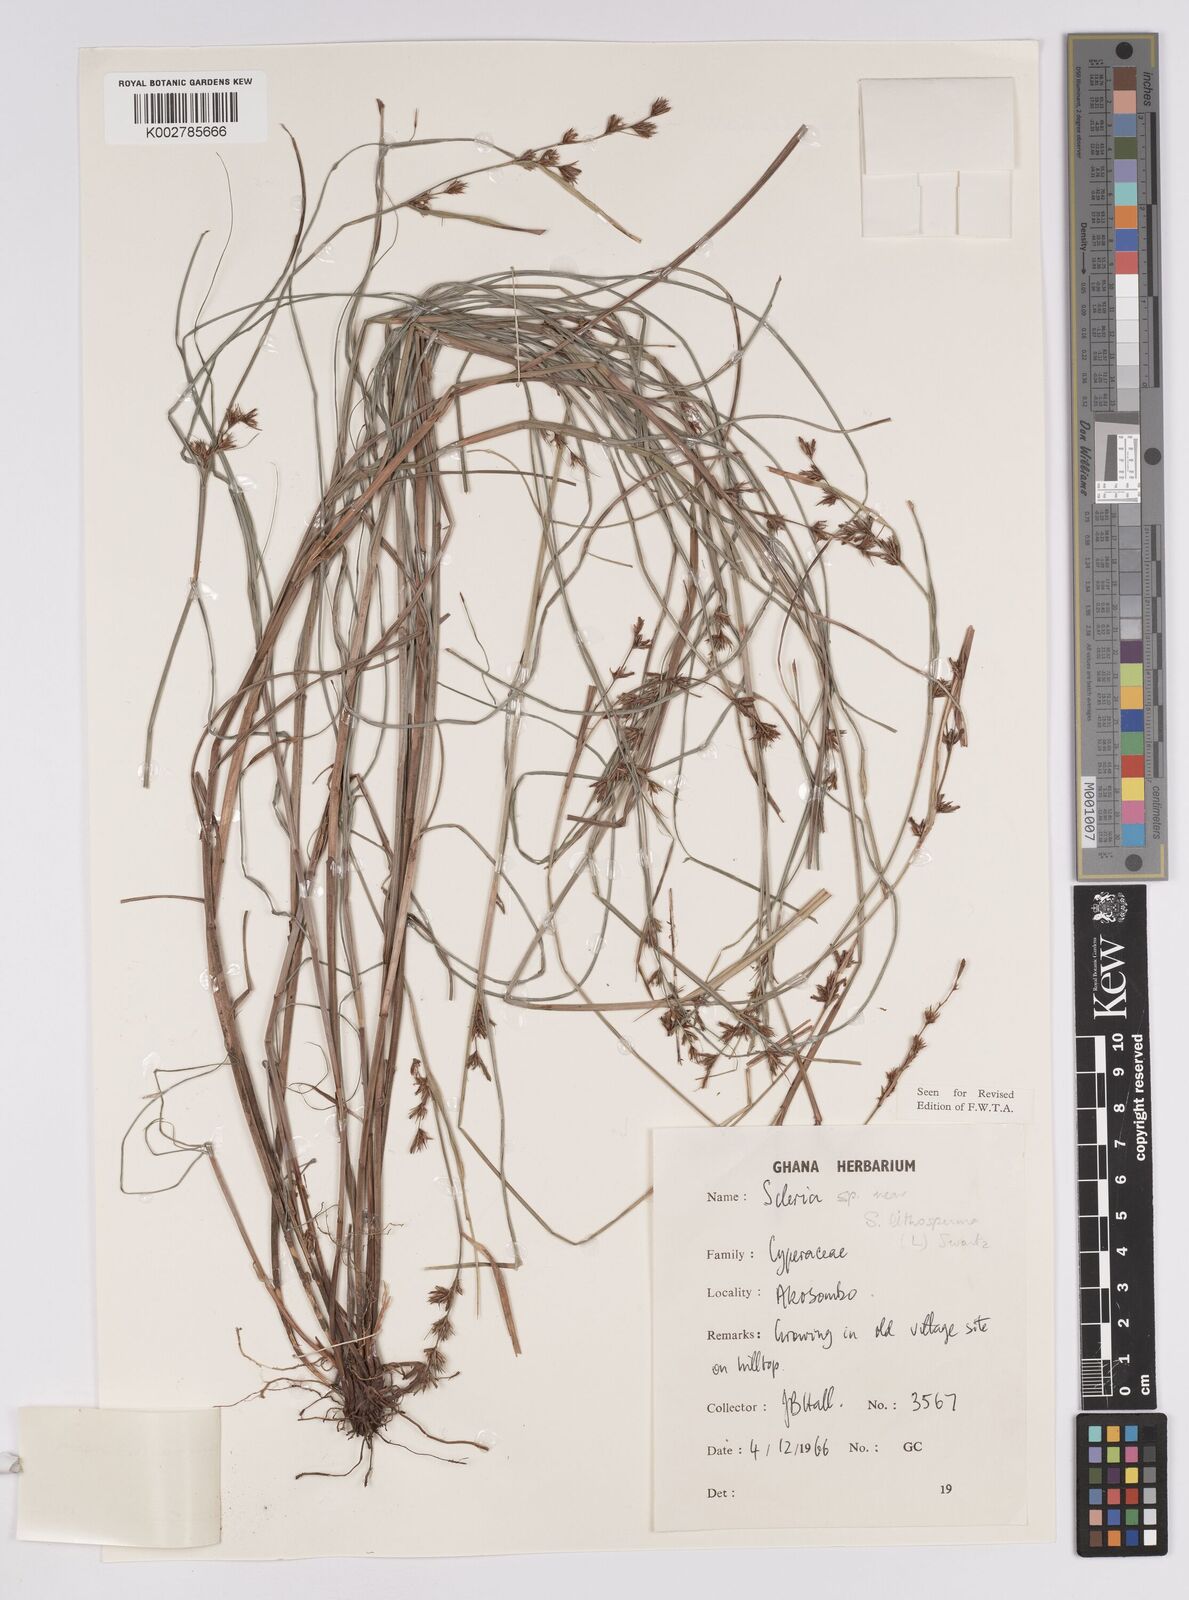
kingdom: Plantae
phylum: Tracheophyta
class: Liliopsida
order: Poales
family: Cyperaceae
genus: Scleria
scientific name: Scleria lithosperma
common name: Florida keys nut-rush
